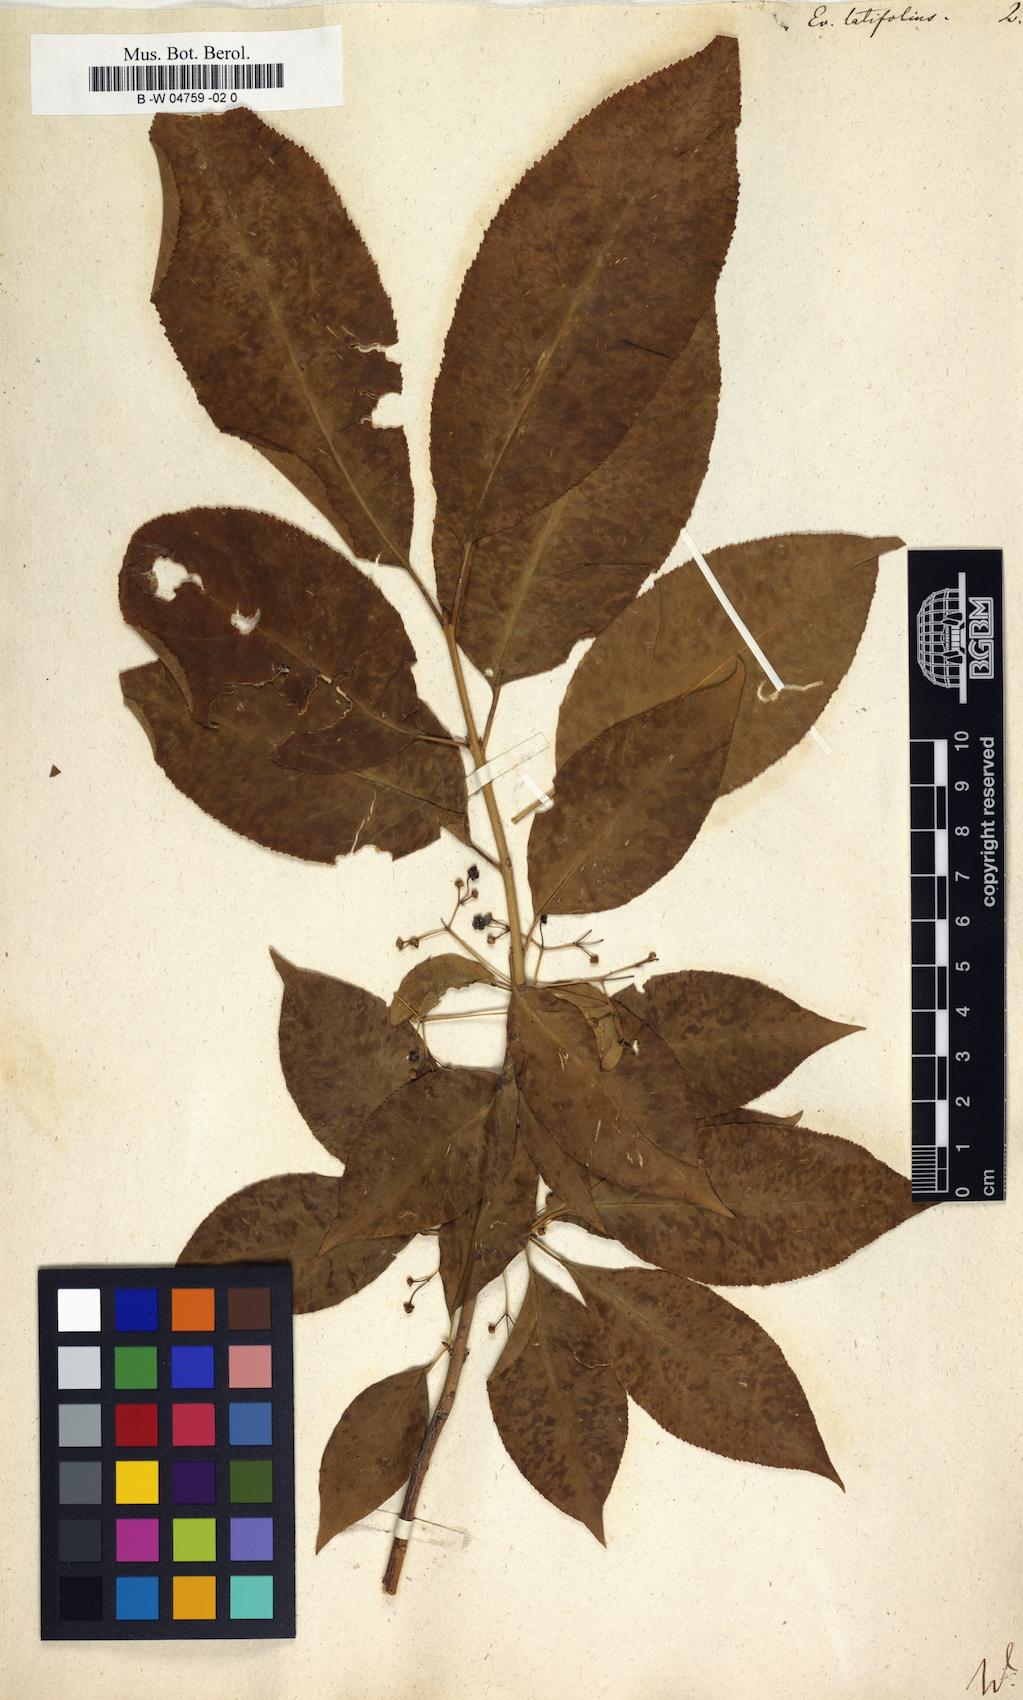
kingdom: Plantae
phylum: Tracheophyta
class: Magnoliopsida
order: Celastrales
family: Celastraceae
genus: Euonymus
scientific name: Euonymus latifolius
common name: Large-leaved spindle
